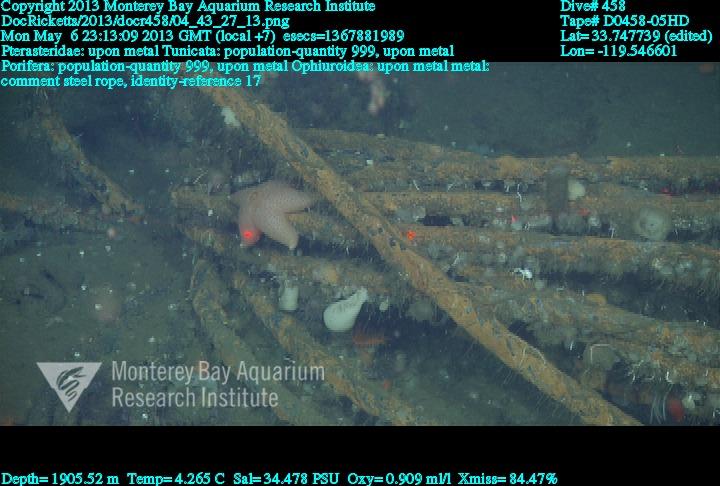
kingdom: Animalia
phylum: Porifera
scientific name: Porifera
